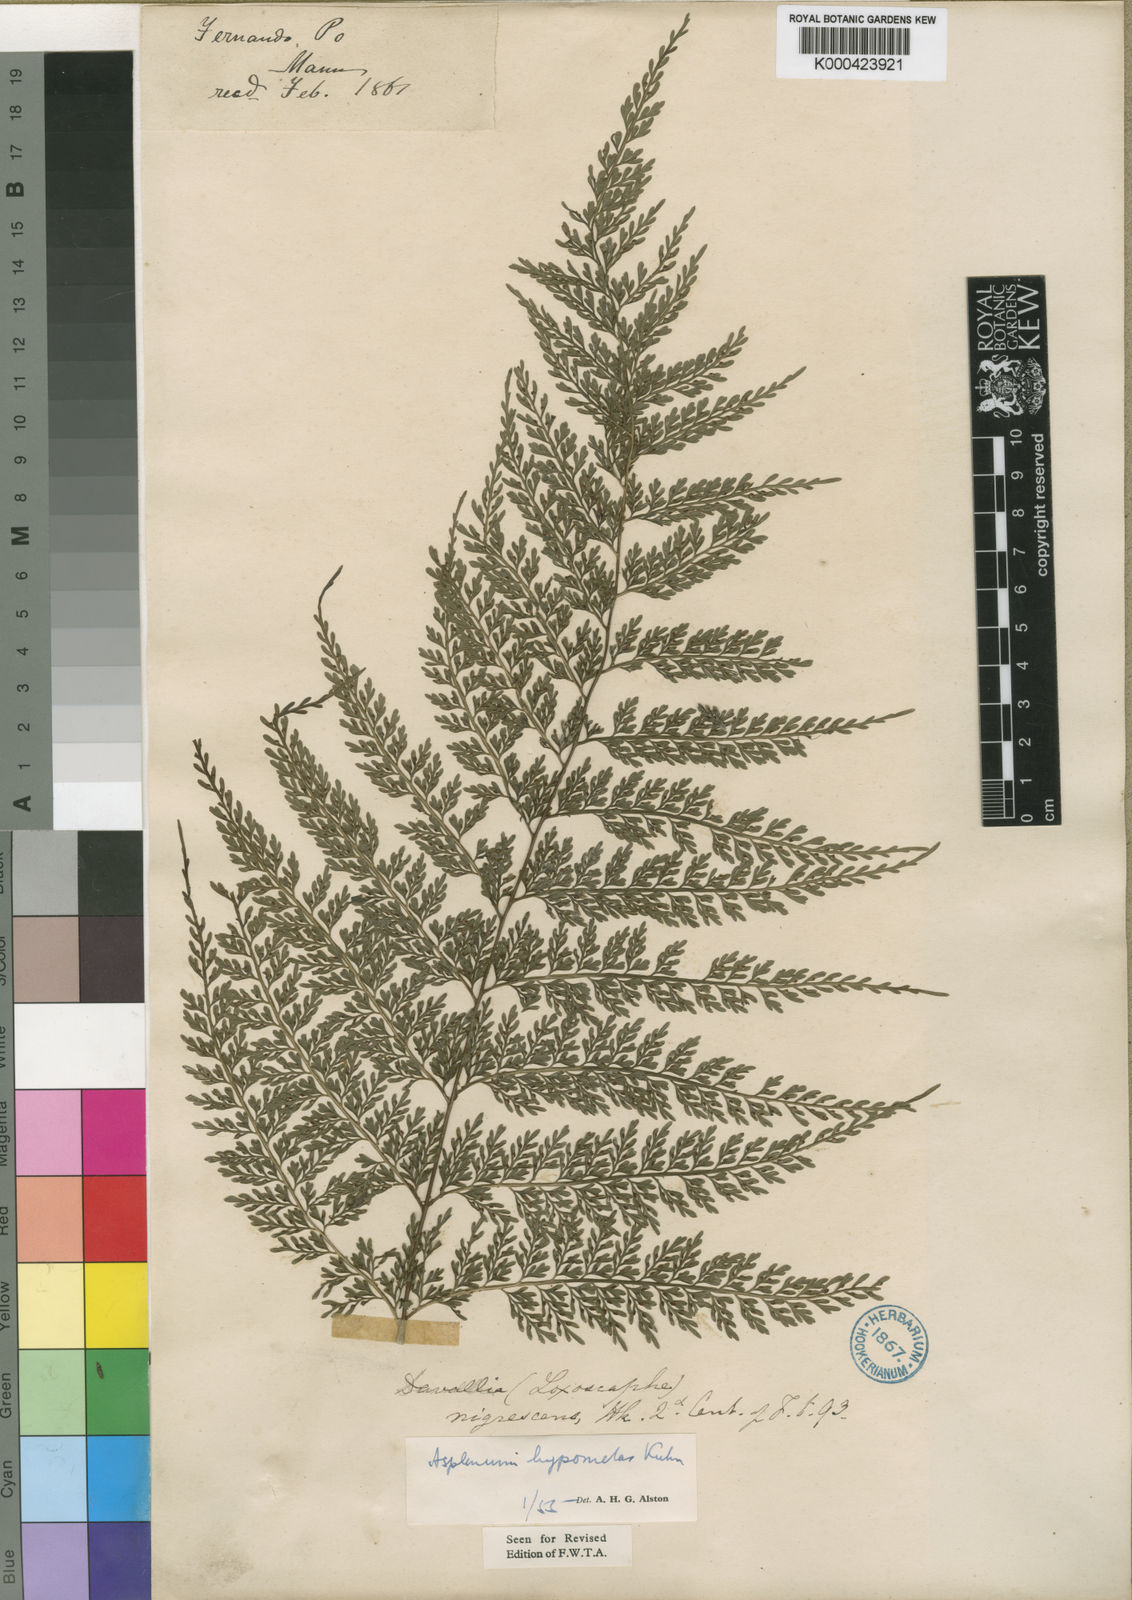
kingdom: Plantae
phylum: Tracheophyta
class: Polypodiopsida
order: Polypodiales
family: Aspleniaceae
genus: Asplenium
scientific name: Asplenium hypomelas
